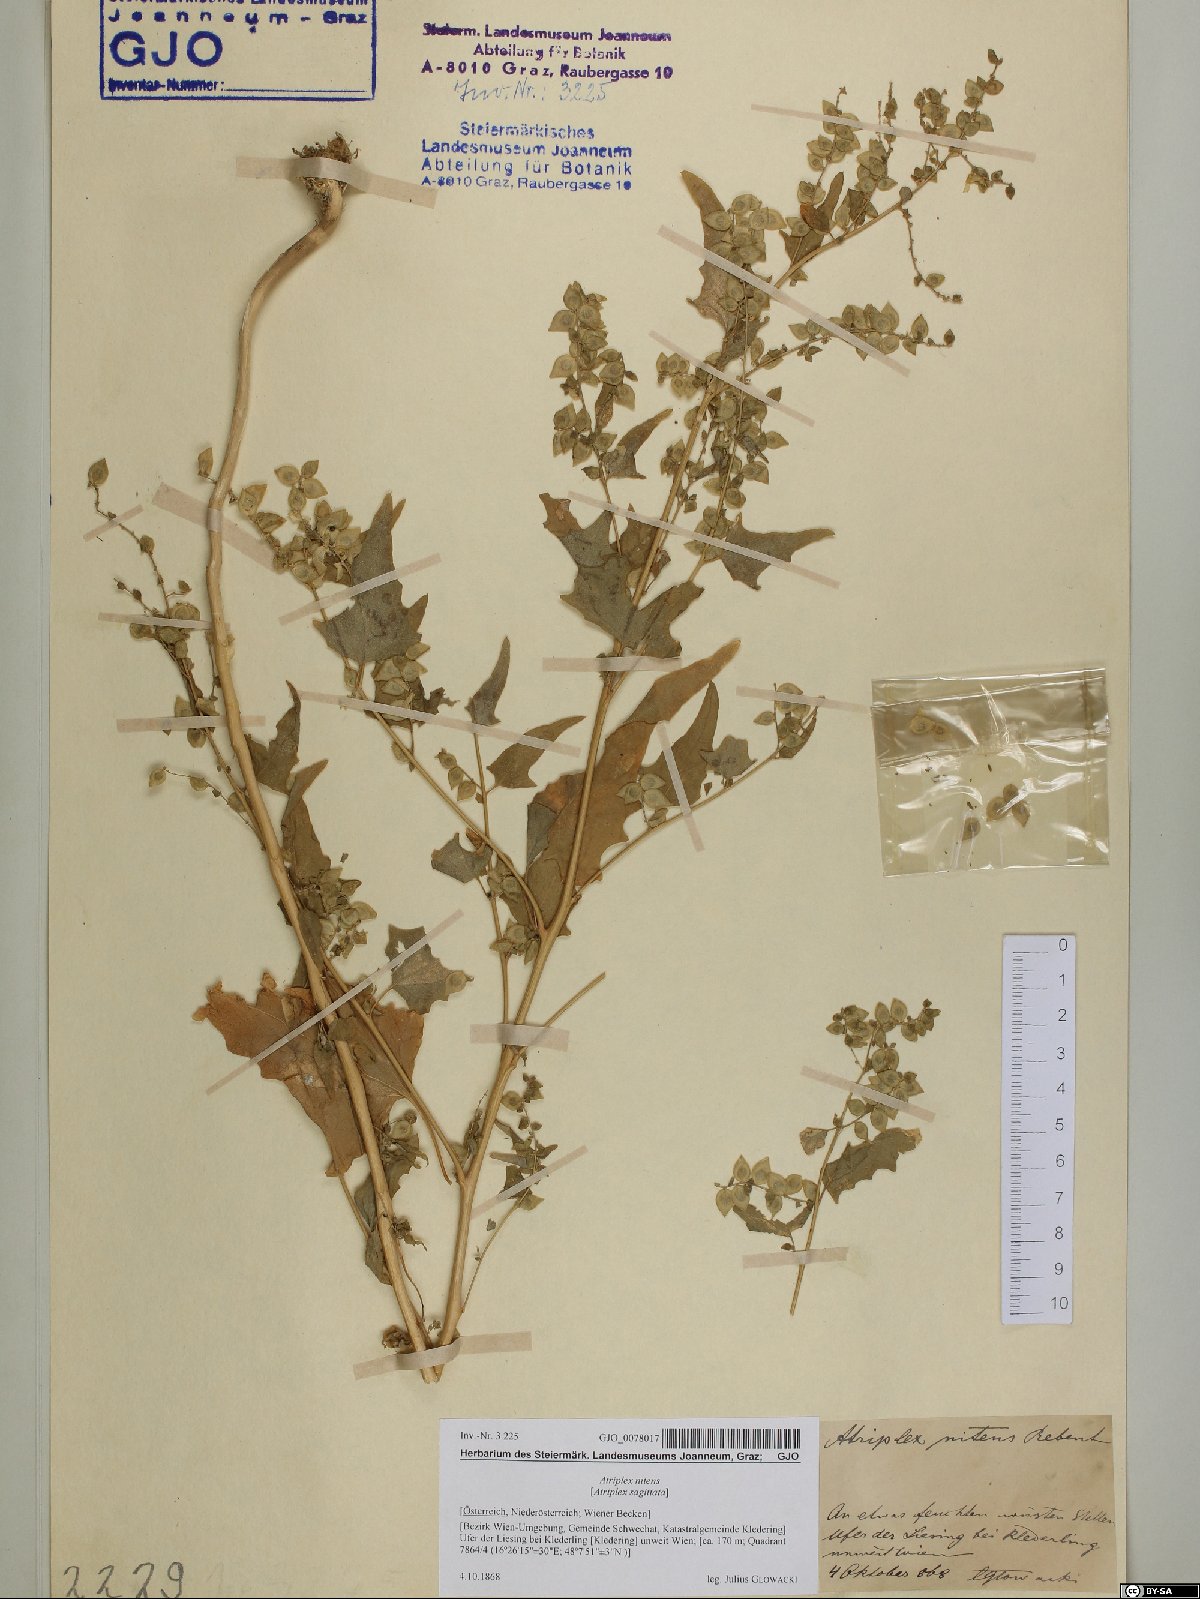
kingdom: Plantae
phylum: Tracheophyta
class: Magnoliopsida
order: Caryophyllales
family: Amaranthaceae
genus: Atriplex
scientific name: Atriplex sagittata
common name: Purple orache
